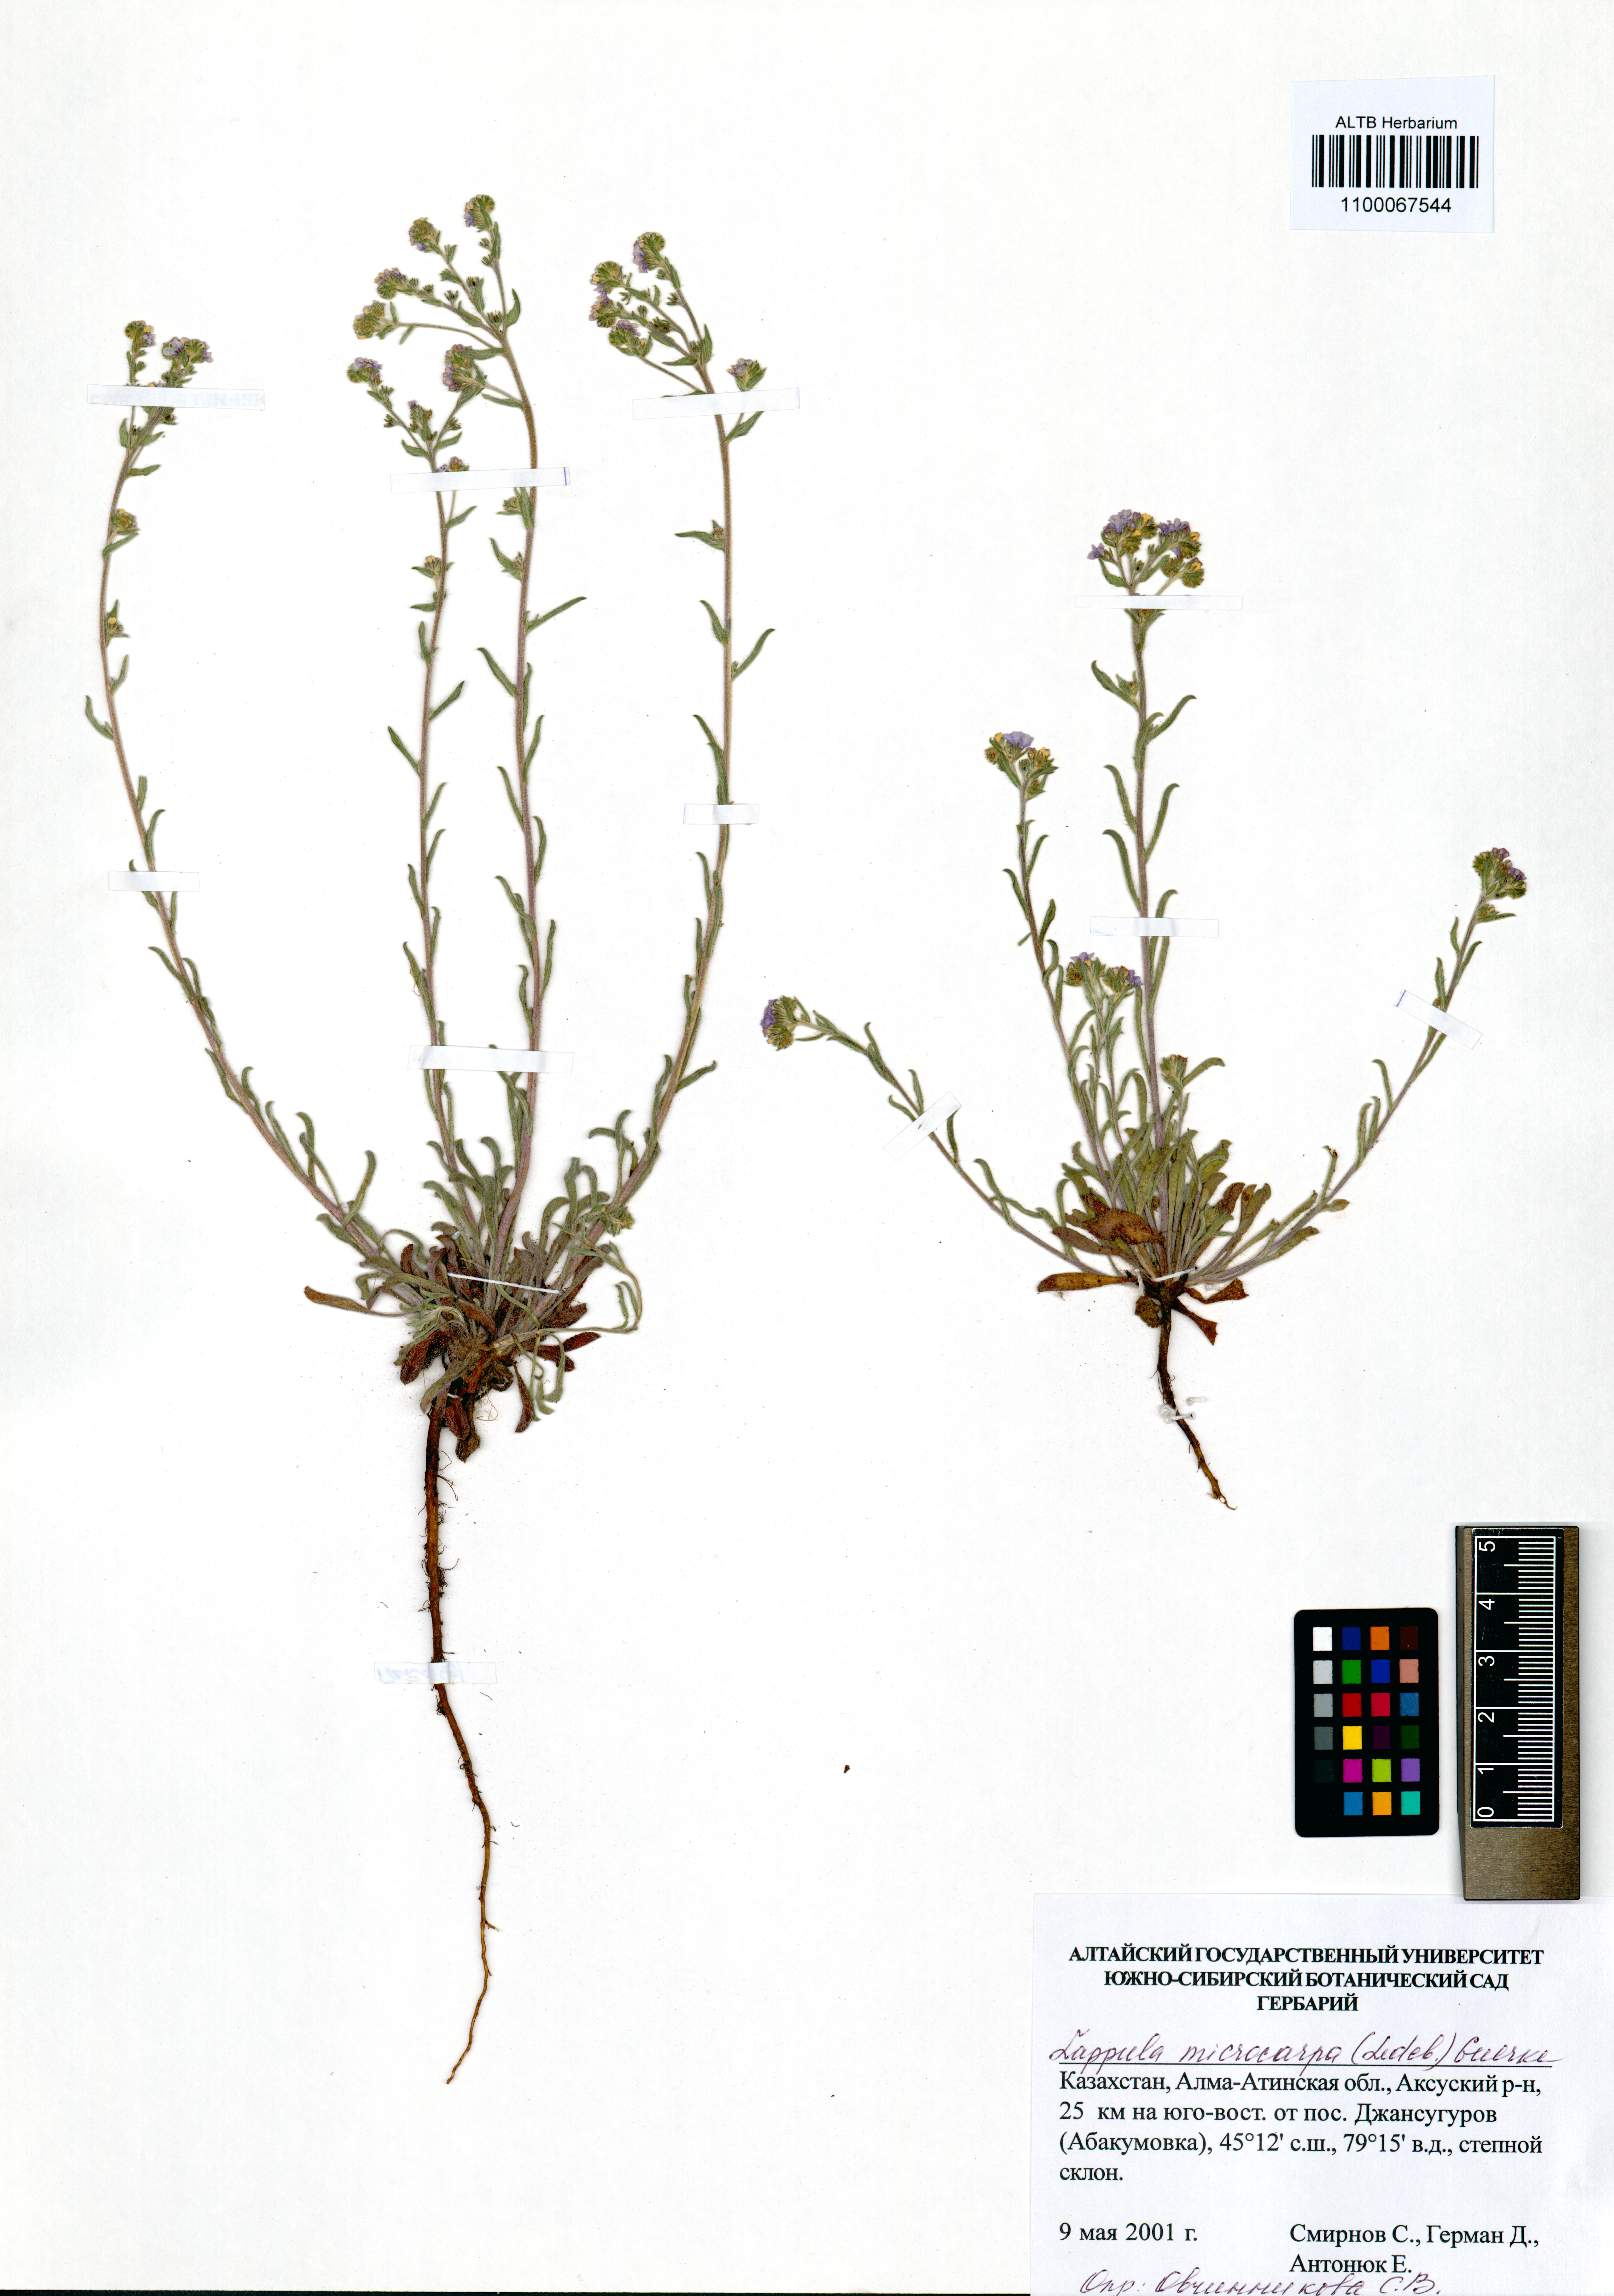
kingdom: Plantae
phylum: Tracheophyta
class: Magnoliopsida
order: Boraginales
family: Boraginaceae
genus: Lappula
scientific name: Lappula microcarpa
